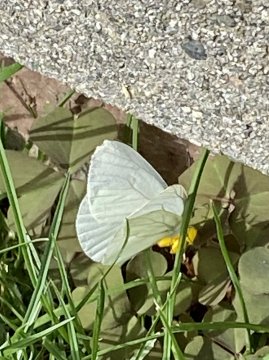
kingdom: Animalia
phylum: Arthropoda
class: Insecta
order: Lepidoptera
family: Pieridae
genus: Pieris
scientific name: Pieris marginalis
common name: Margined White
